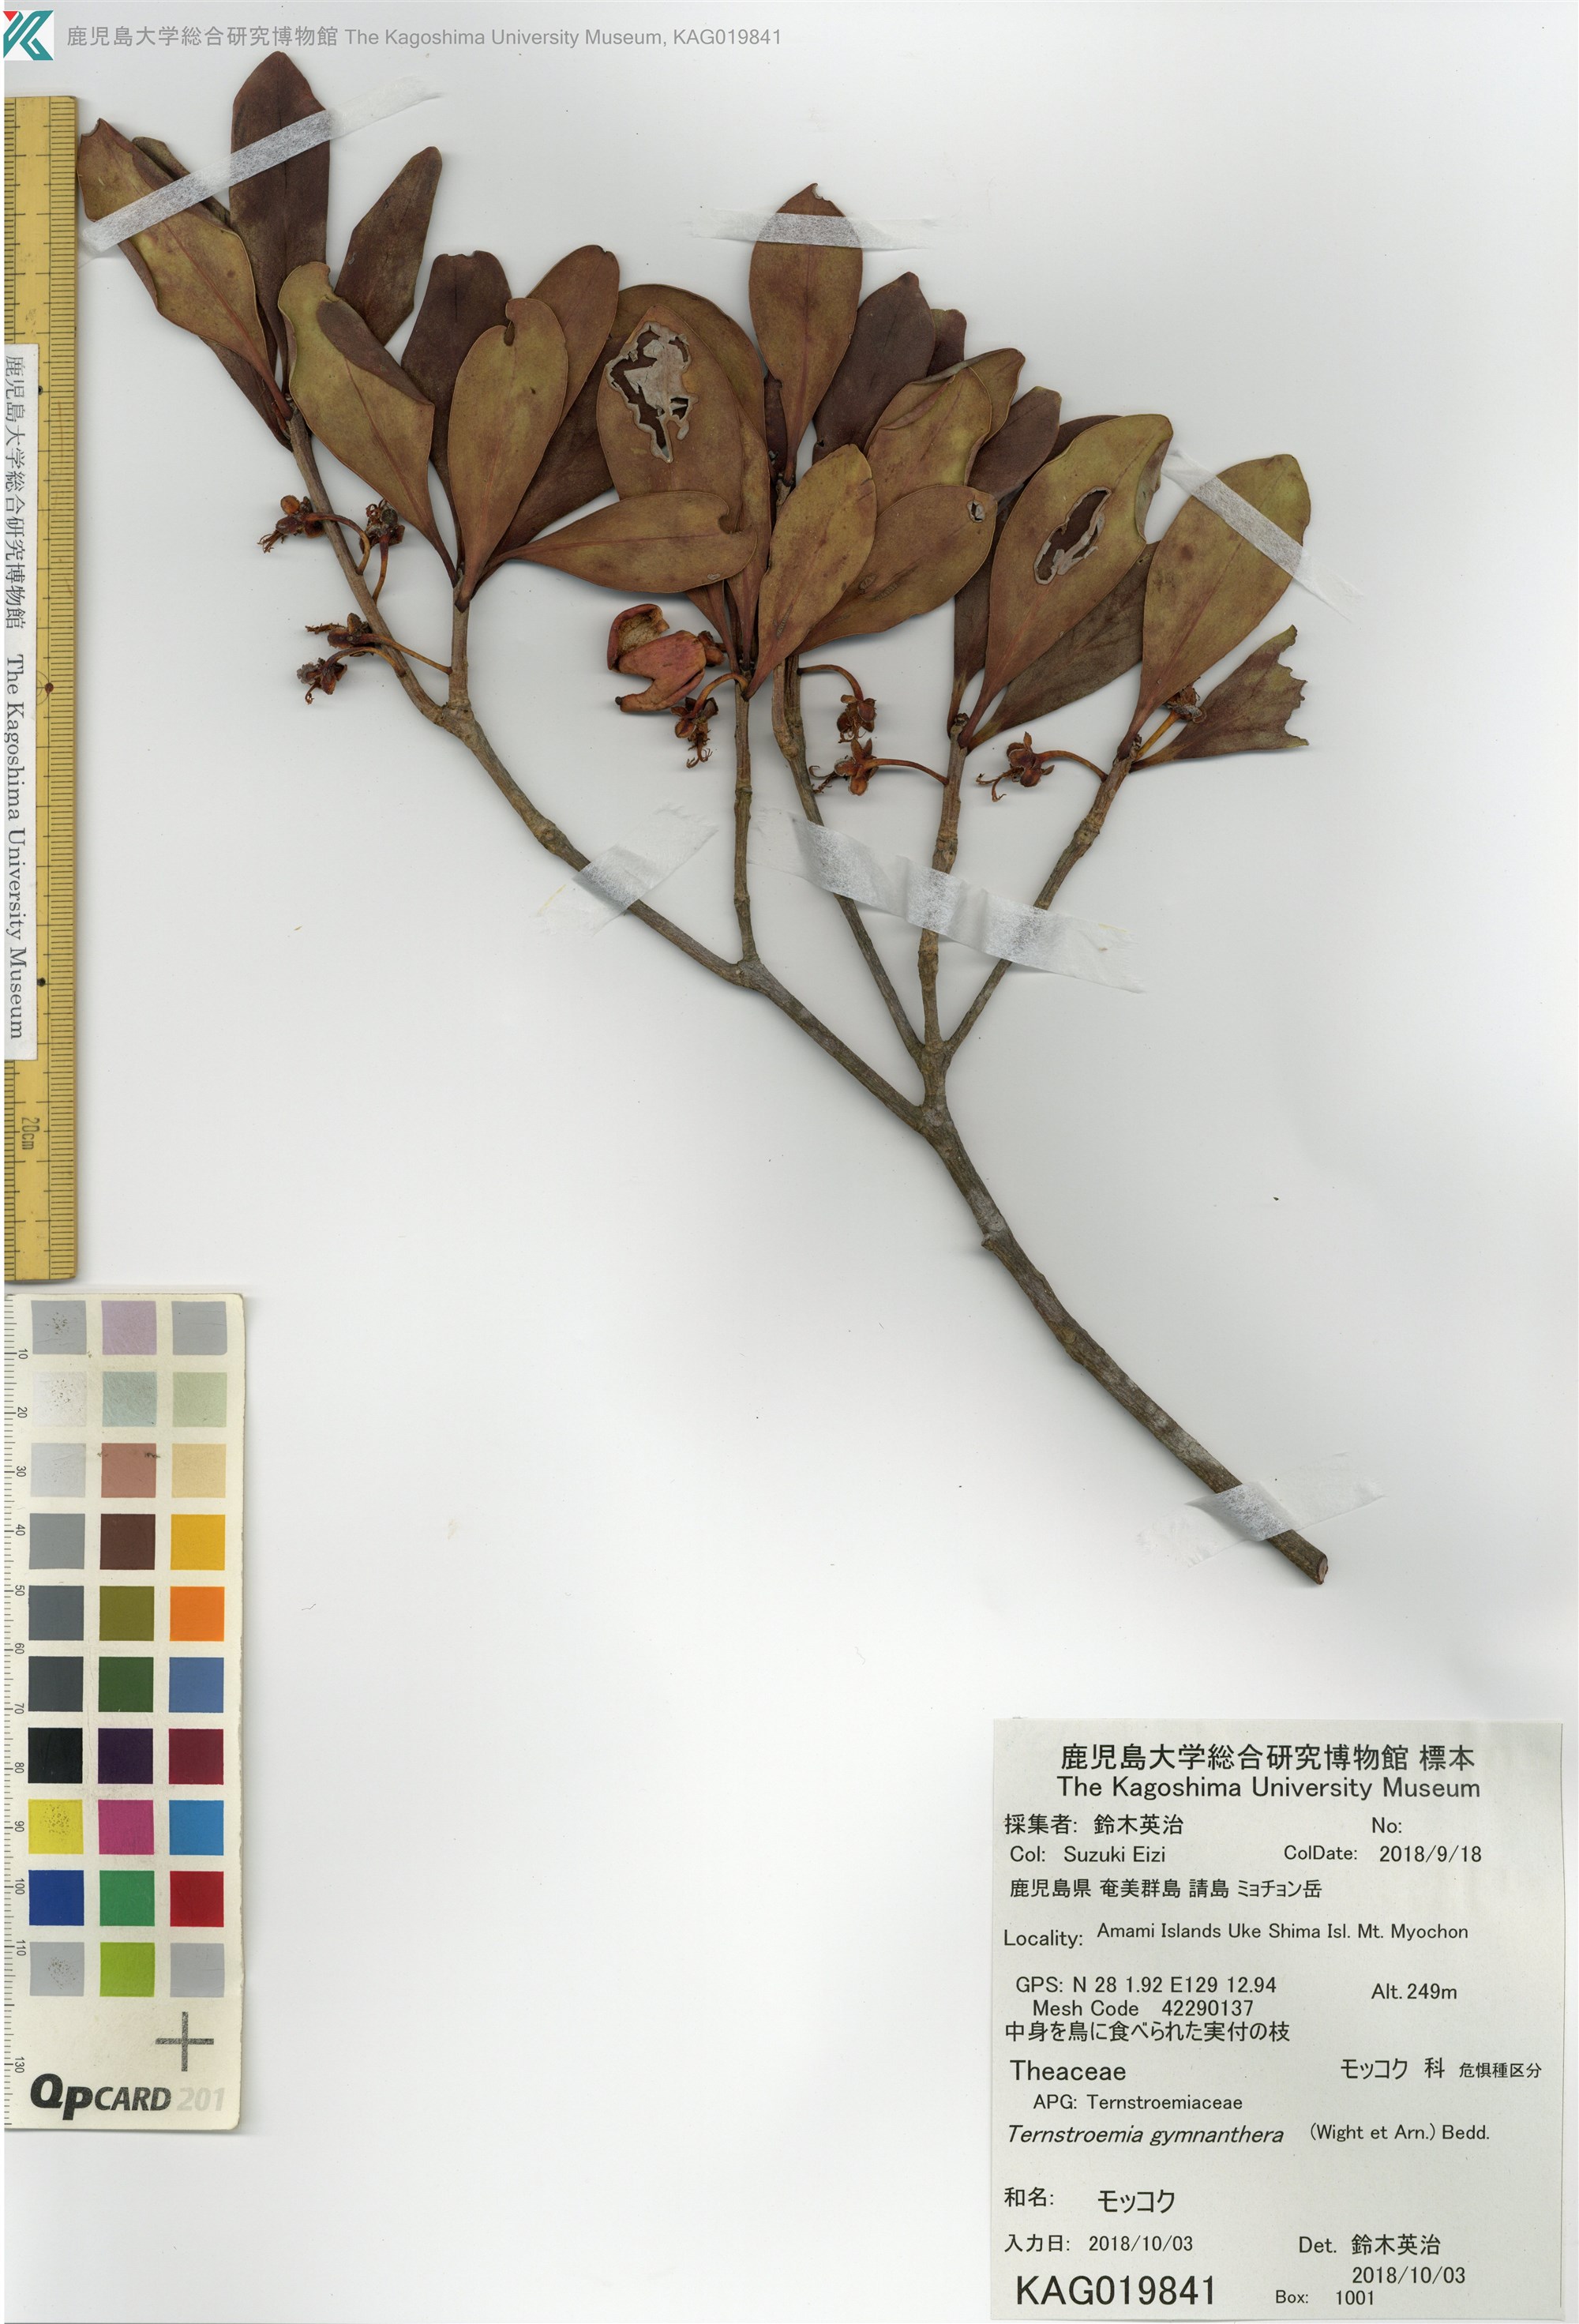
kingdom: Plantae
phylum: Tracheophyta
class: Magnoliopsida
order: Ericales
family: Pentaphylacaceae
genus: Ternstroemia
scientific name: Ternstroemia gymnanthera
